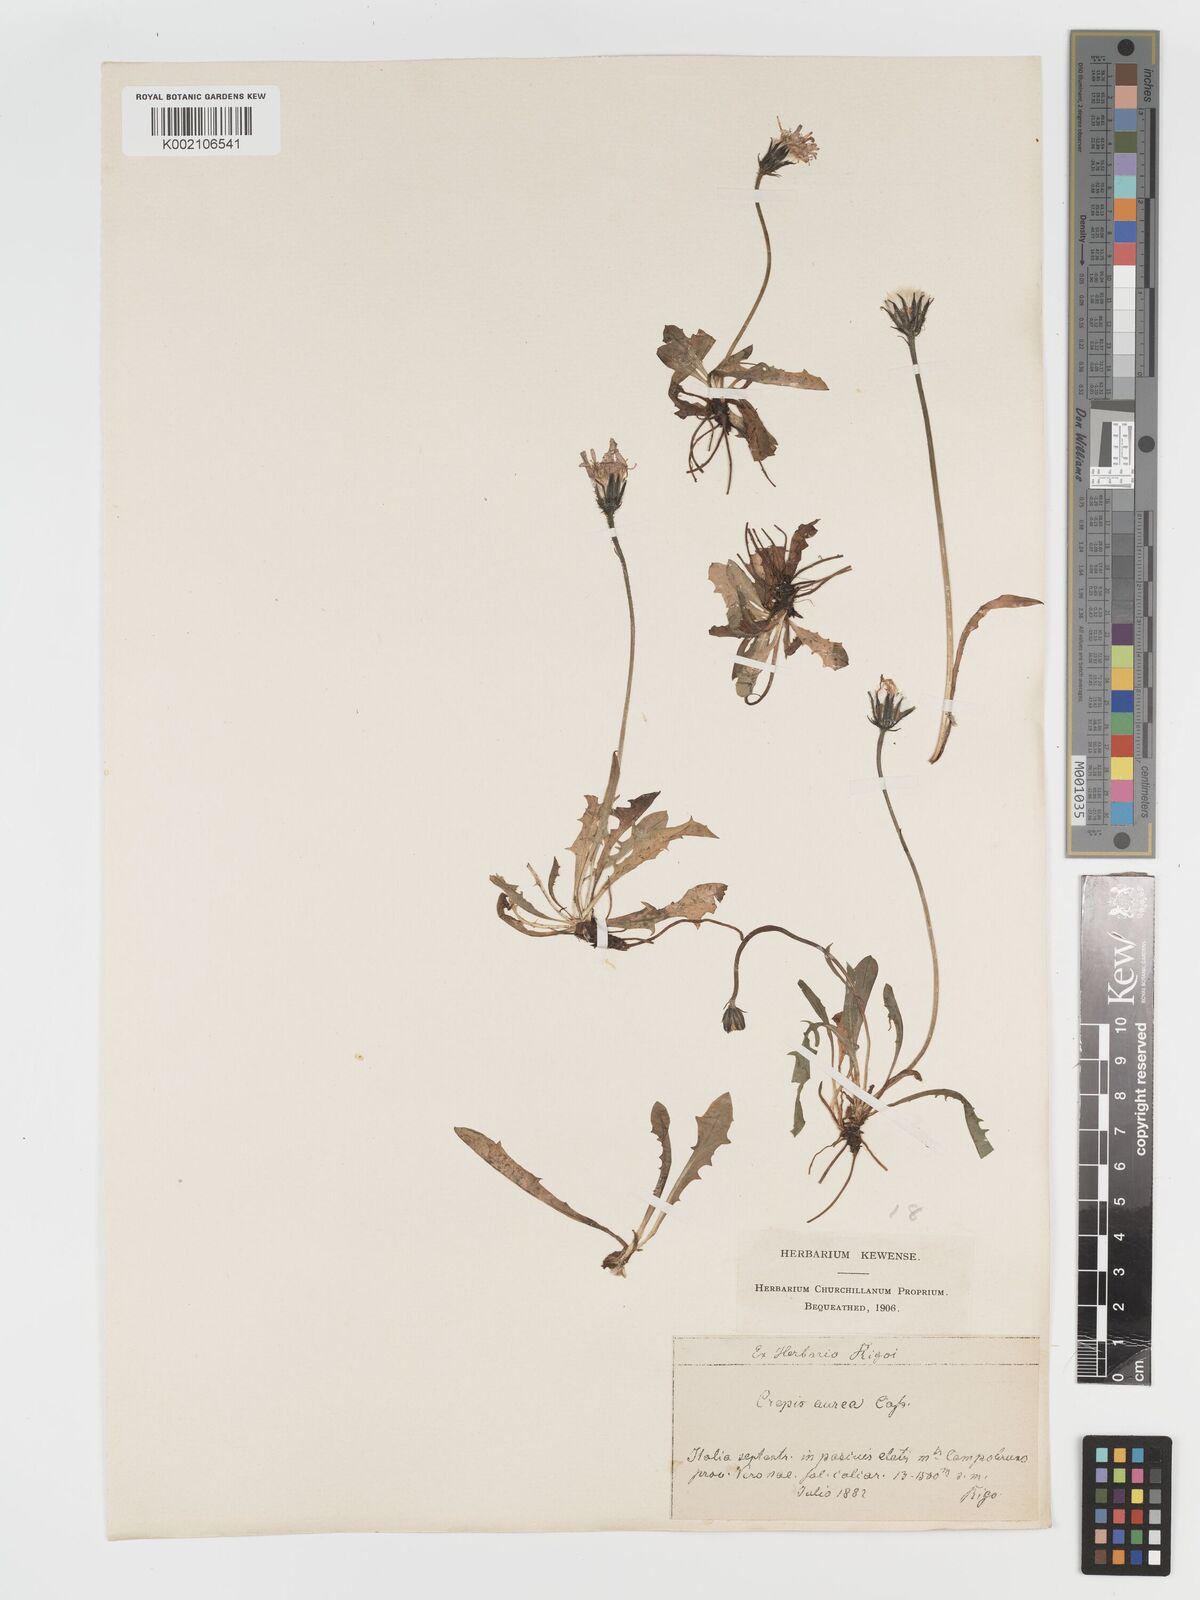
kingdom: Plantae
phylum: Tracheophyta
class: Magnoliopsida
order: Asterales
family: Asteraceae
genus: Crepis
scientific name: Crepis aurea
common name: Golden hawk's-beard
